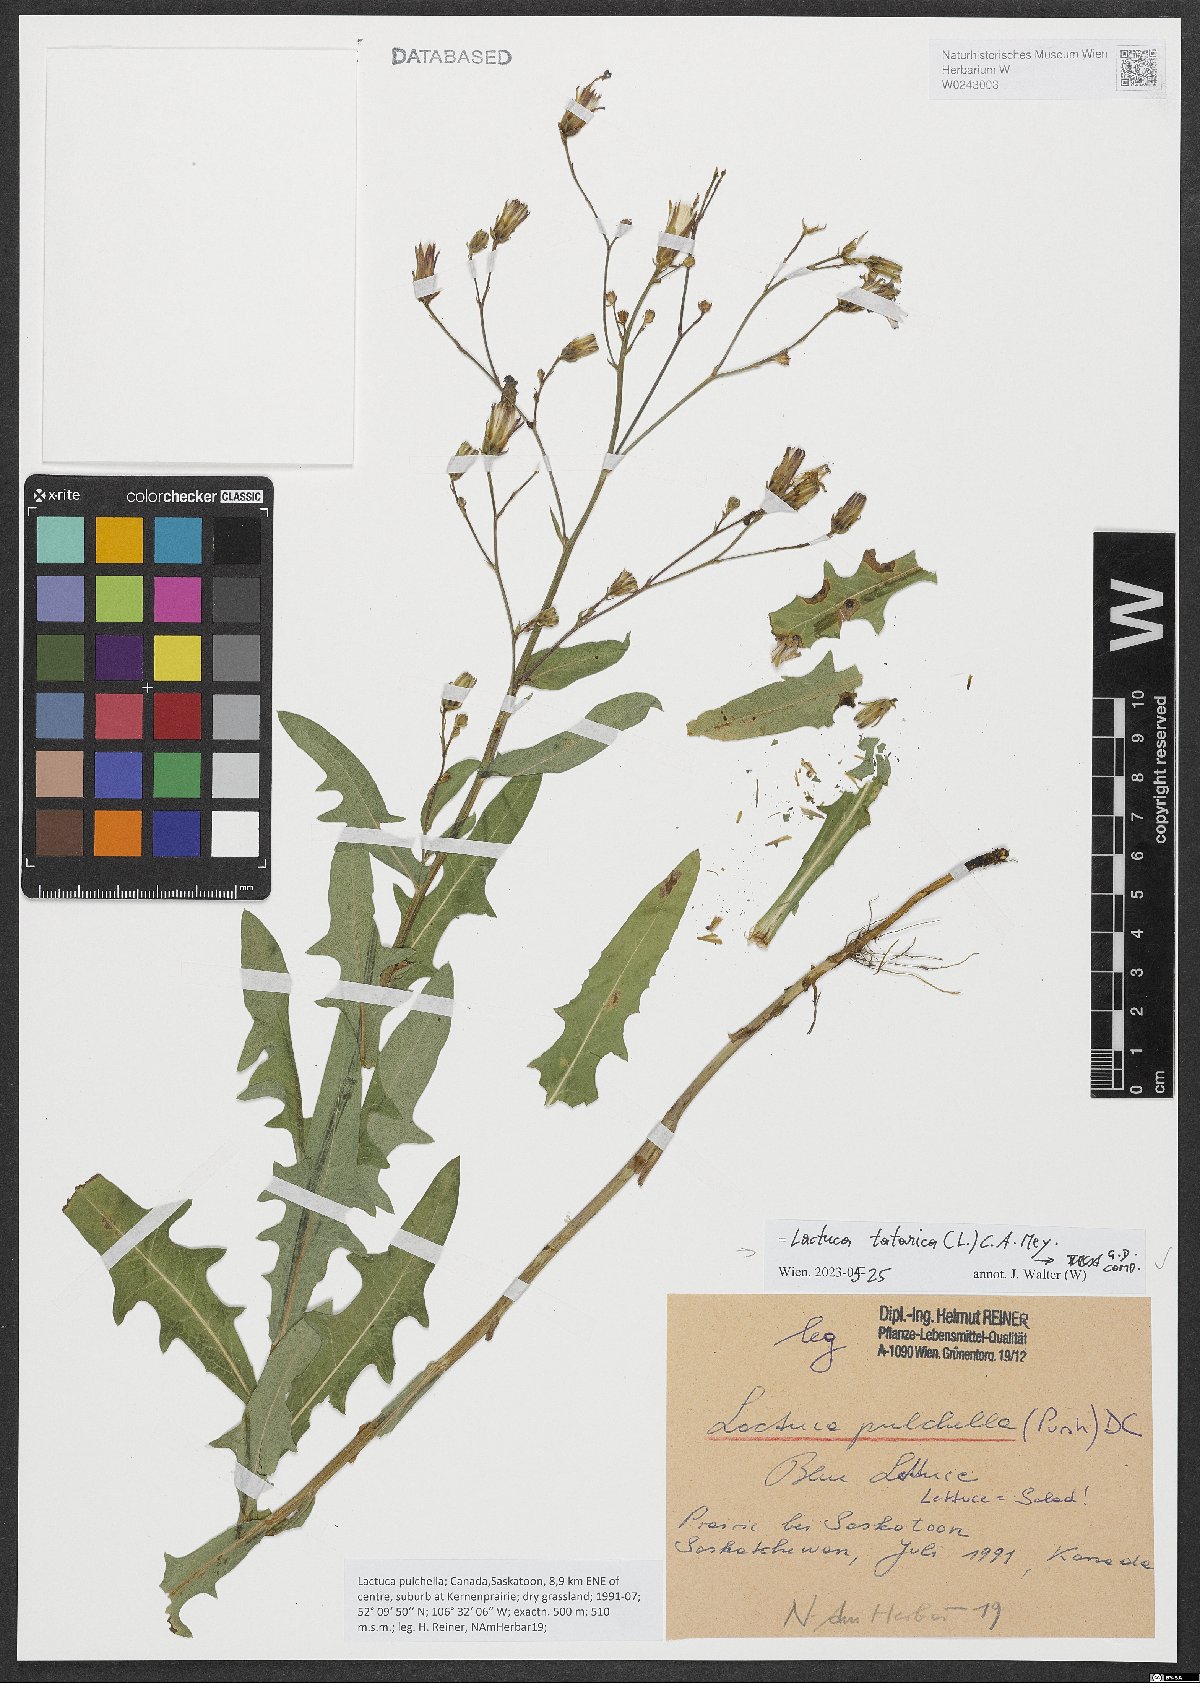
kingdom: Plantae
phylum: Tracheophyta
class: Magnoliopsida
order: Asterales
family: Asteraceae
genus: Lactuca
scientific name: Lactuca tatarica
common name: Blue lettuce
